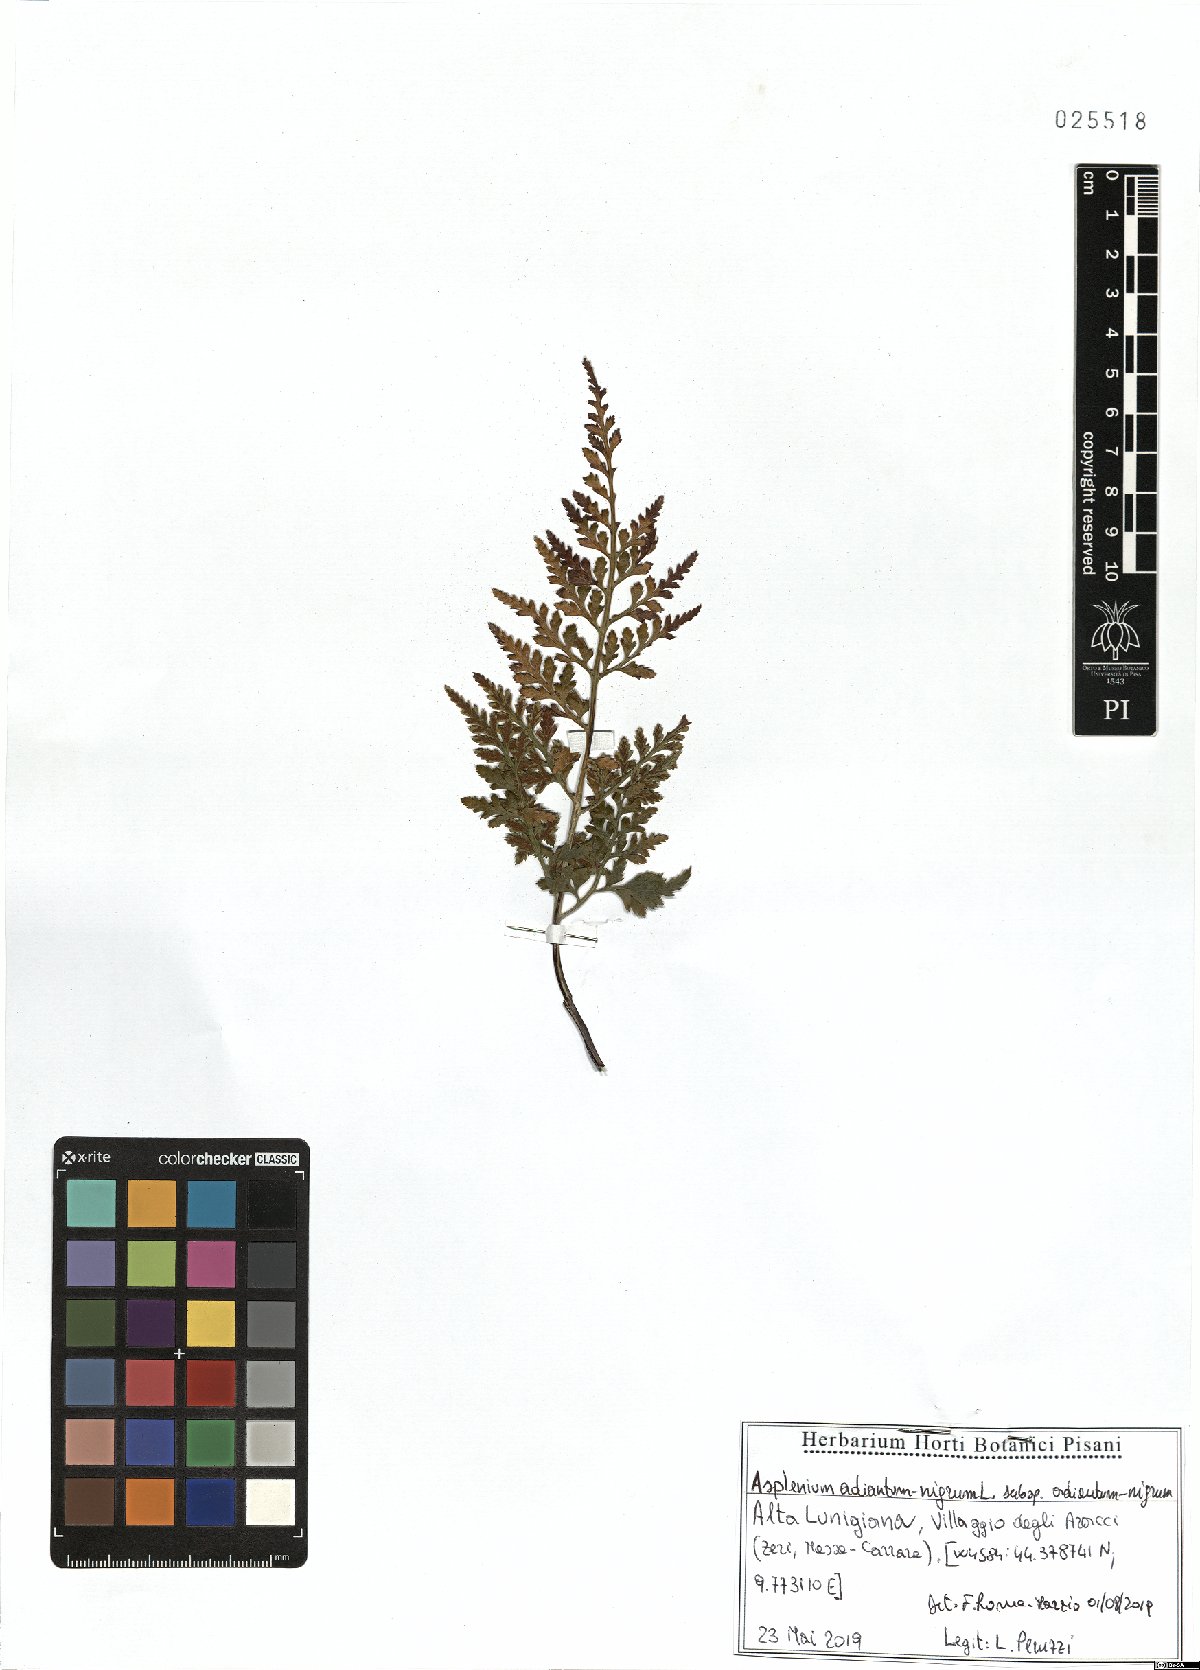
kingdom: Plantae
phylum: Tracheophyta
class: Polypodiopsida
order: Polypodiales
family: Aspleniaceae
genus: Asplenium
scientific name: Asplenium adiantum-nigrum
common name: Black spleenwort
